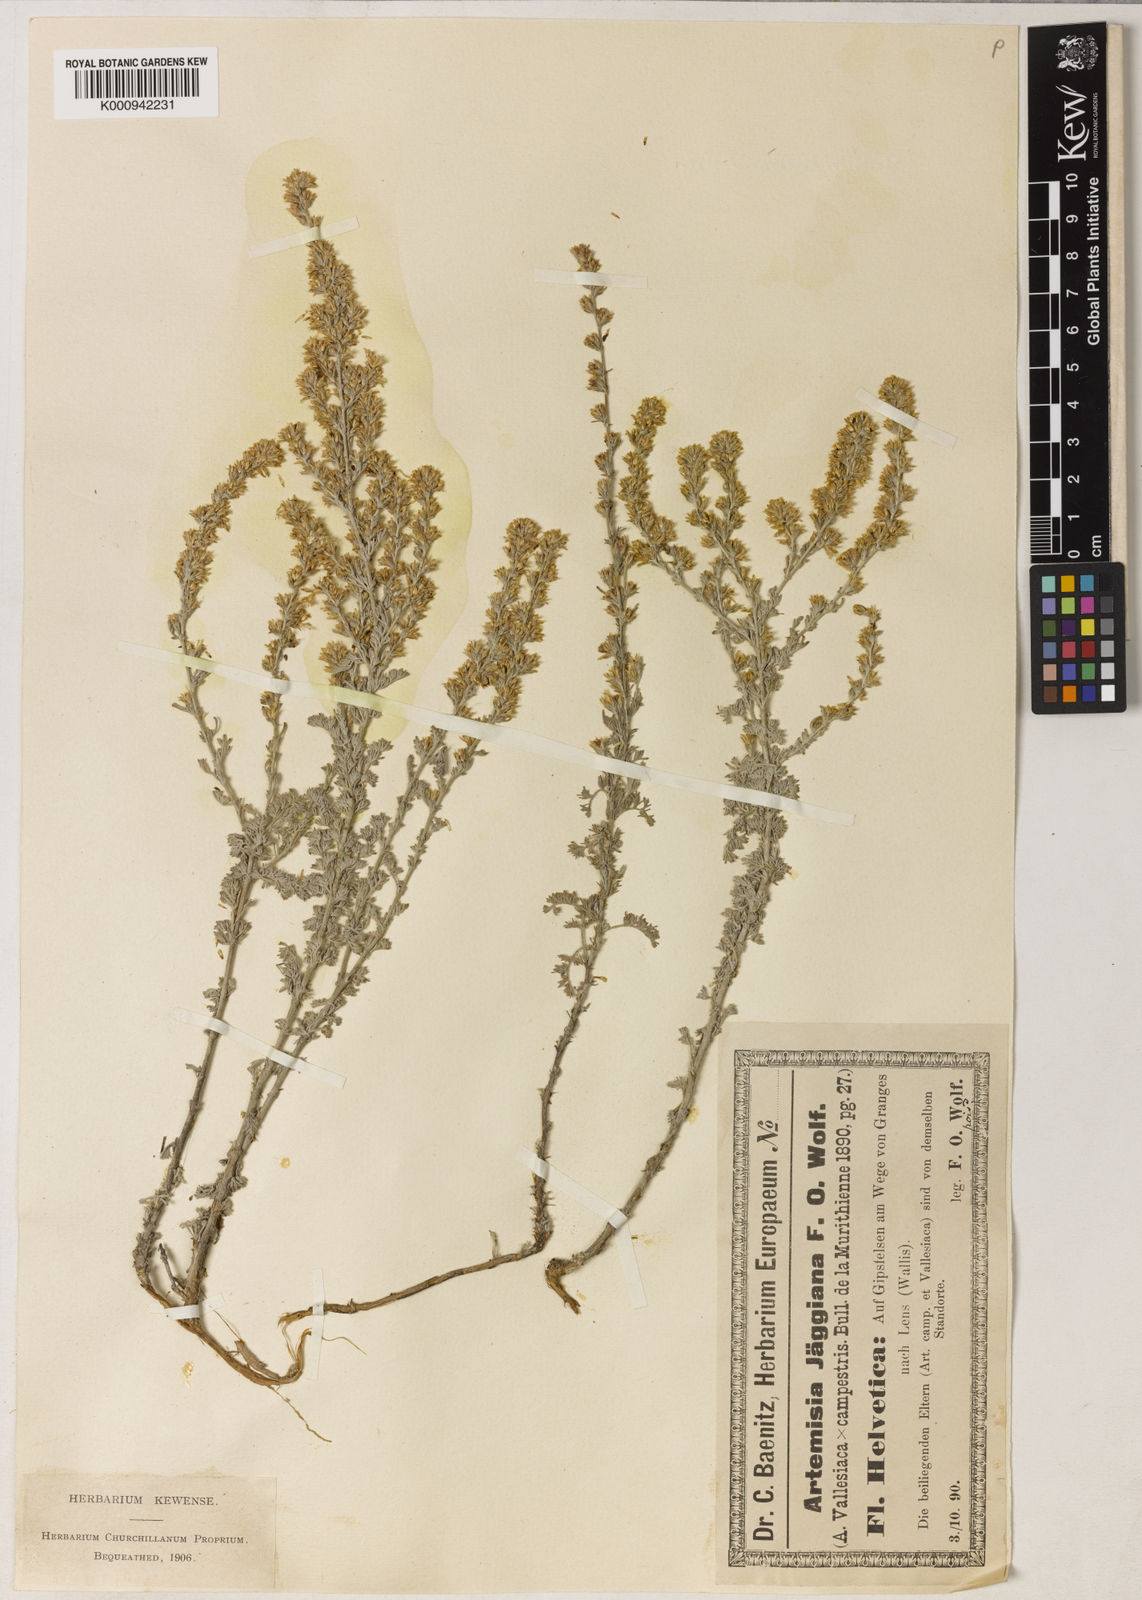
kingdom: Plantae
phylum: Tracheophyta
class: Magnoliopsida
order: Asterales
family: Asteraceae
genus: Artemisia
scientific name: Artemisia vallesiaca
